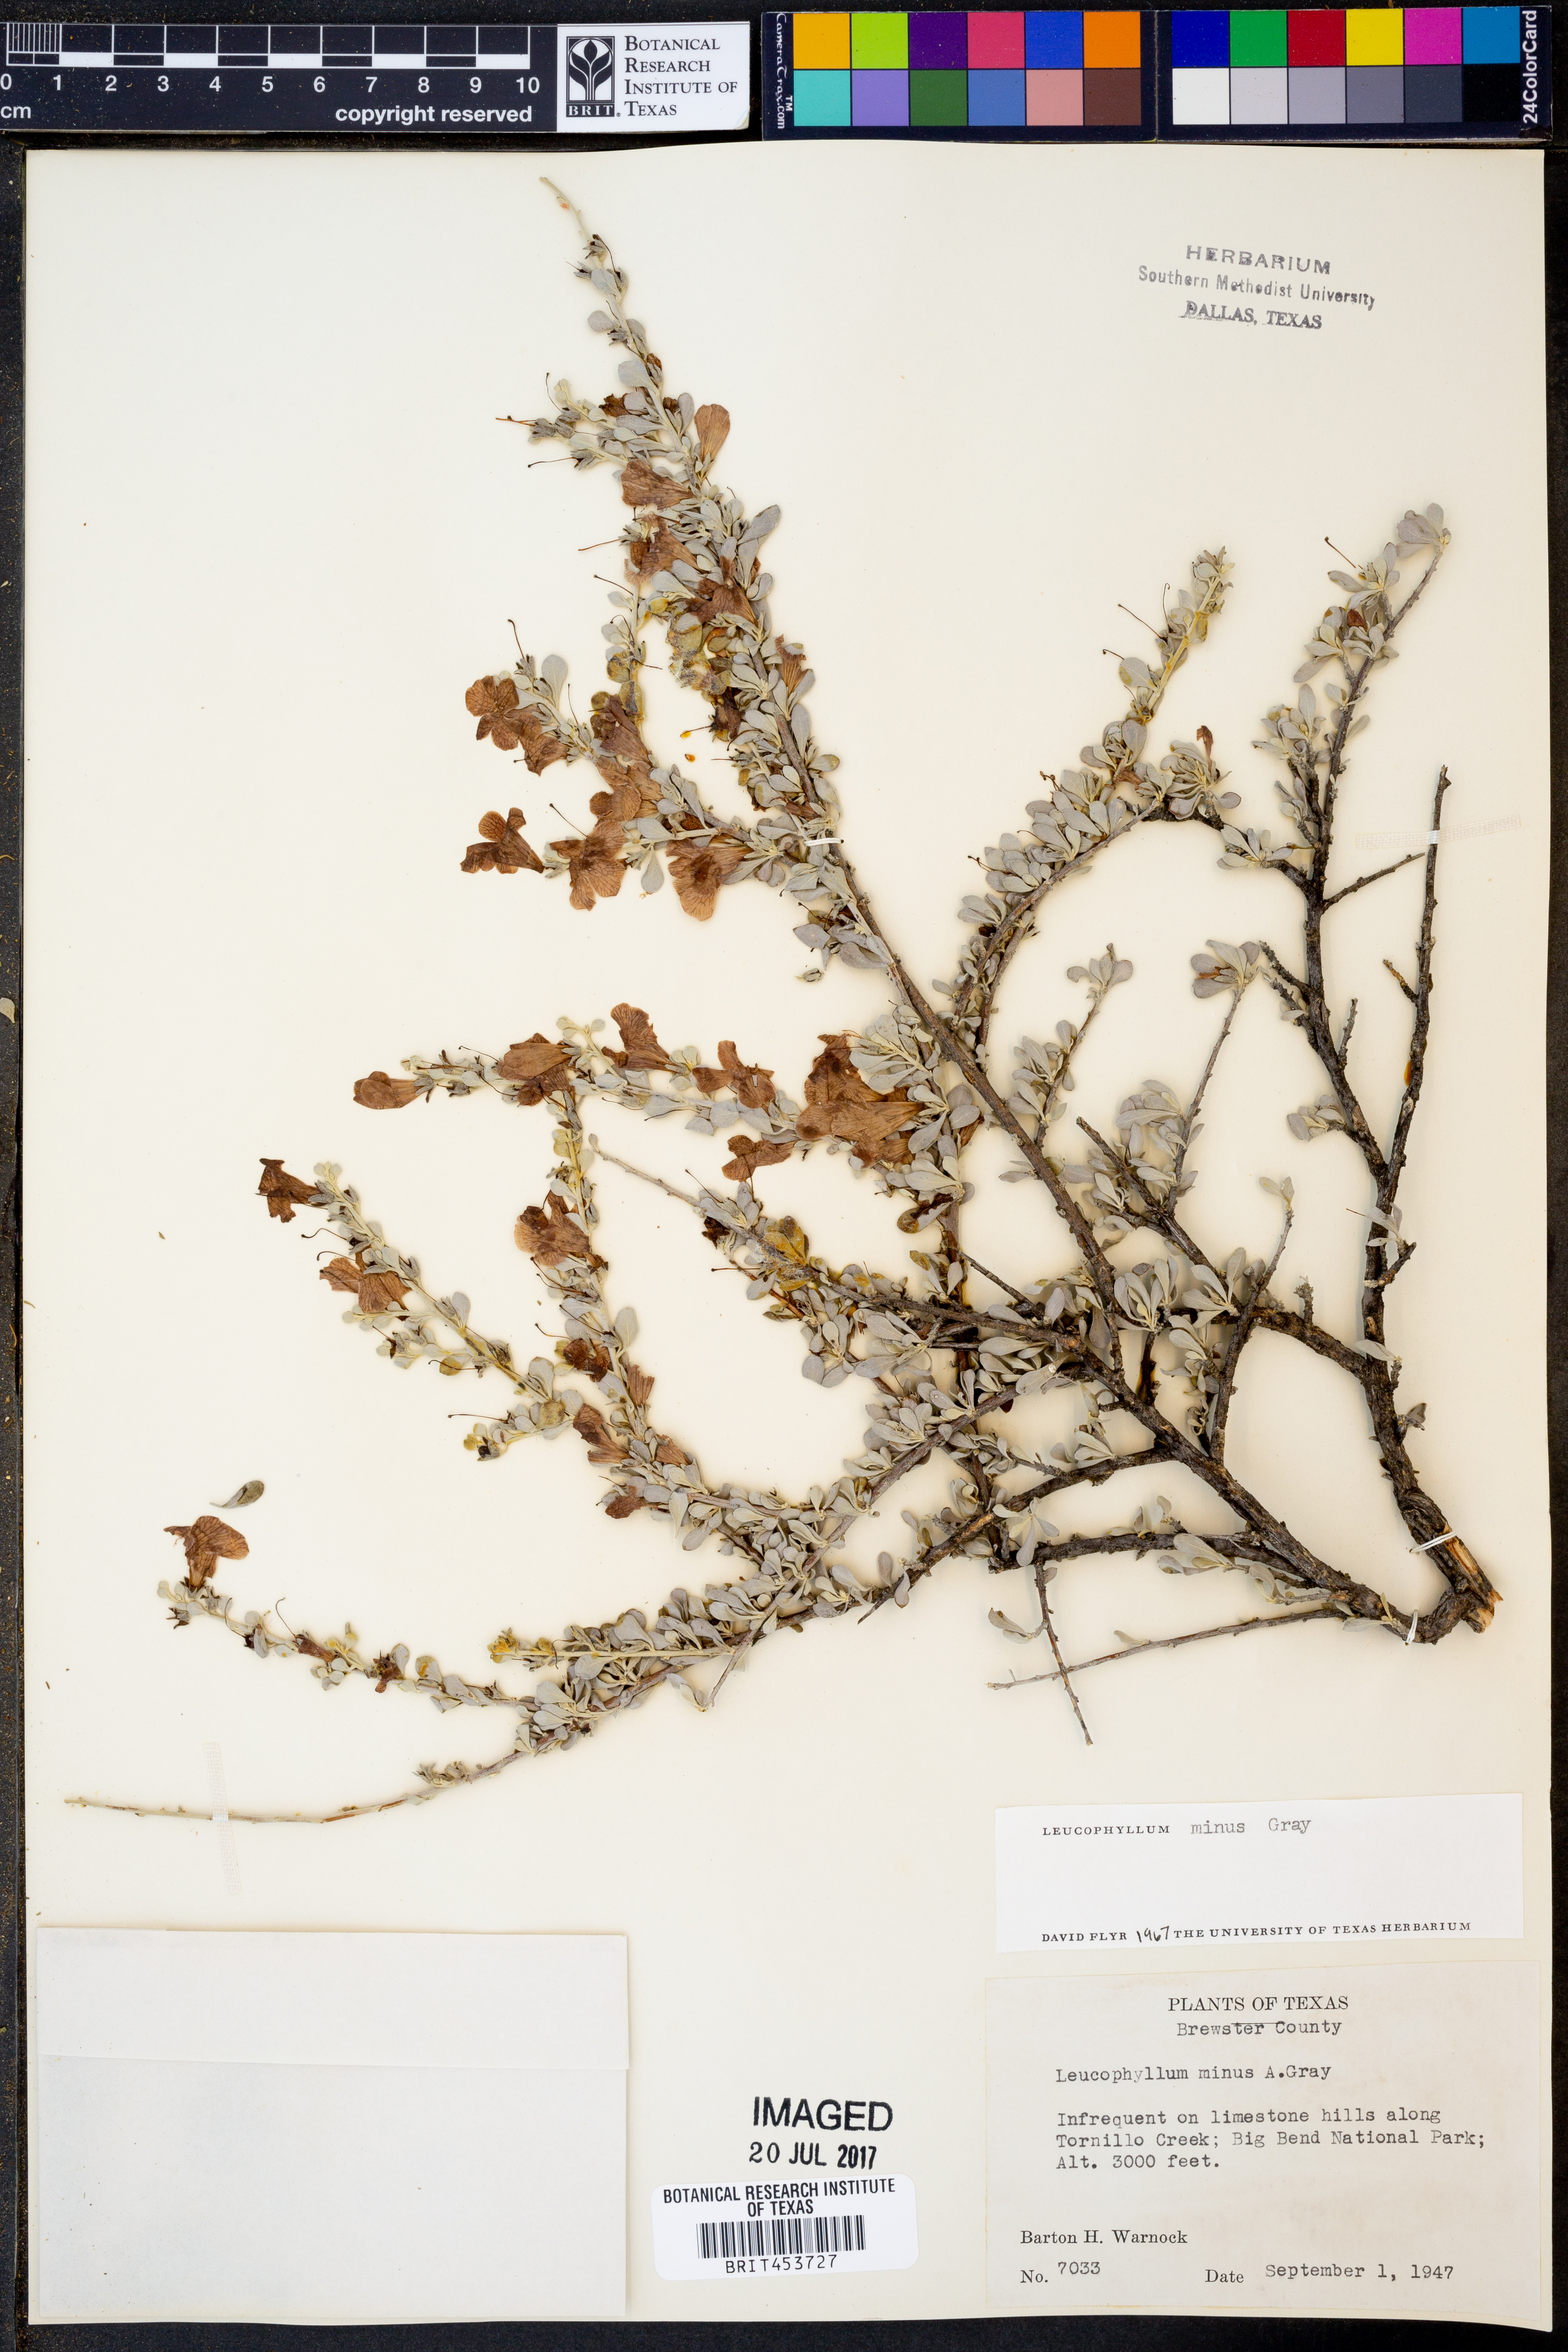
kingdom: Plantae
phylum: Tracheophyta
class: Magnoliopsida
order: Lamiales
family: Scrophulariaceae
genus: Leucophyllum
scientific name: Leucophyllum minus
